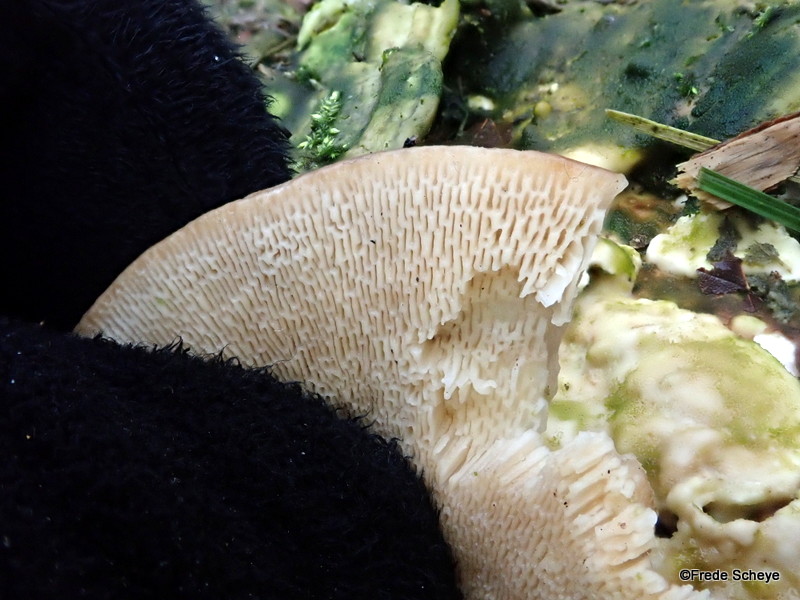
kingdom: Fungi
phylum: Basidiomycota
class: Agaricomycetes
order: Polyporales
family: Polyporaceae
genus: Trametes
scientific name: Trametes gibbosa
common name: puklet læderporesvamp
